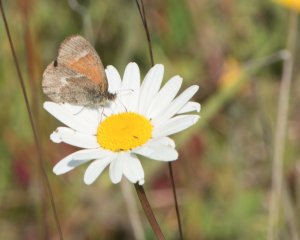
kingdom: Animalia
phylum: Arthropoda
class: Insecta
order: Lepidoptera
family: Nymphalidae
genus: Coenonympha
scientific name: Coenonympha tullia
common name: Large Heath
